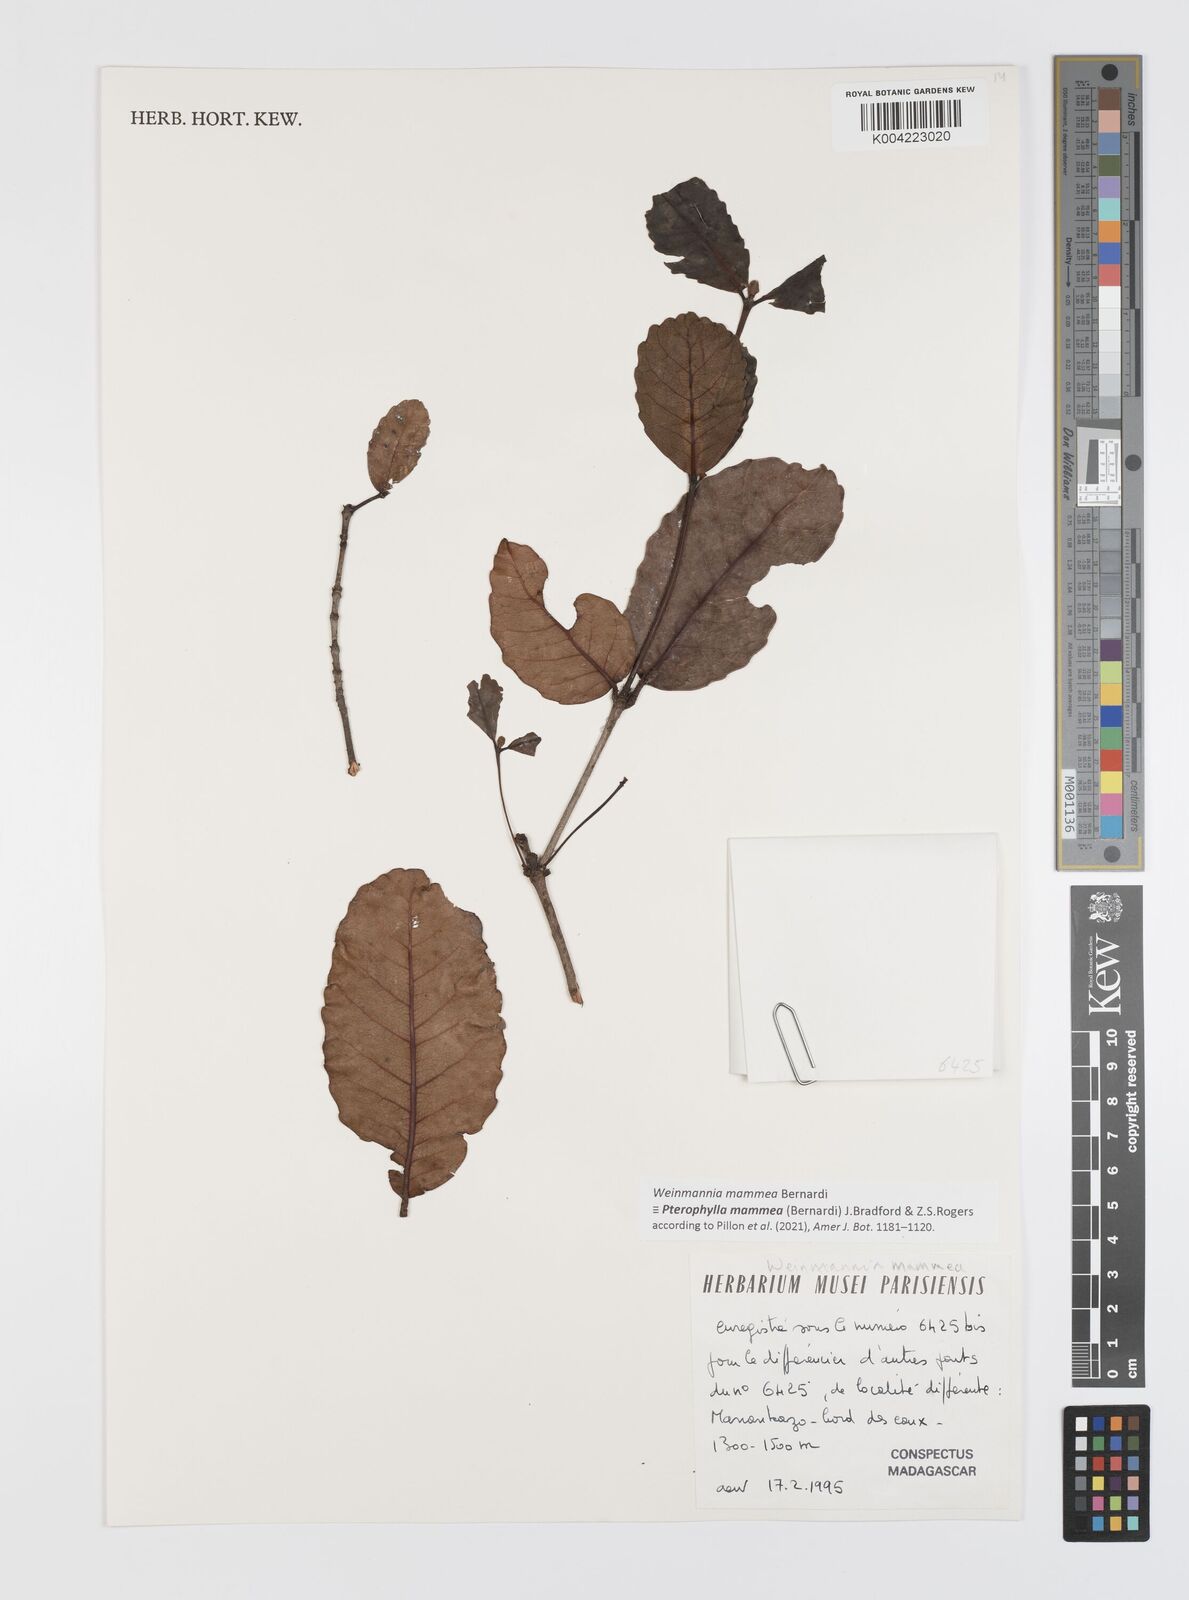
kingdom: Plantae
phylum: Tracheophyta
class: Magnoliopsida
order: Oxalidales
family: Cunoniaceae
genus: Pterophylla
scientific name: Pterophylla mammea
